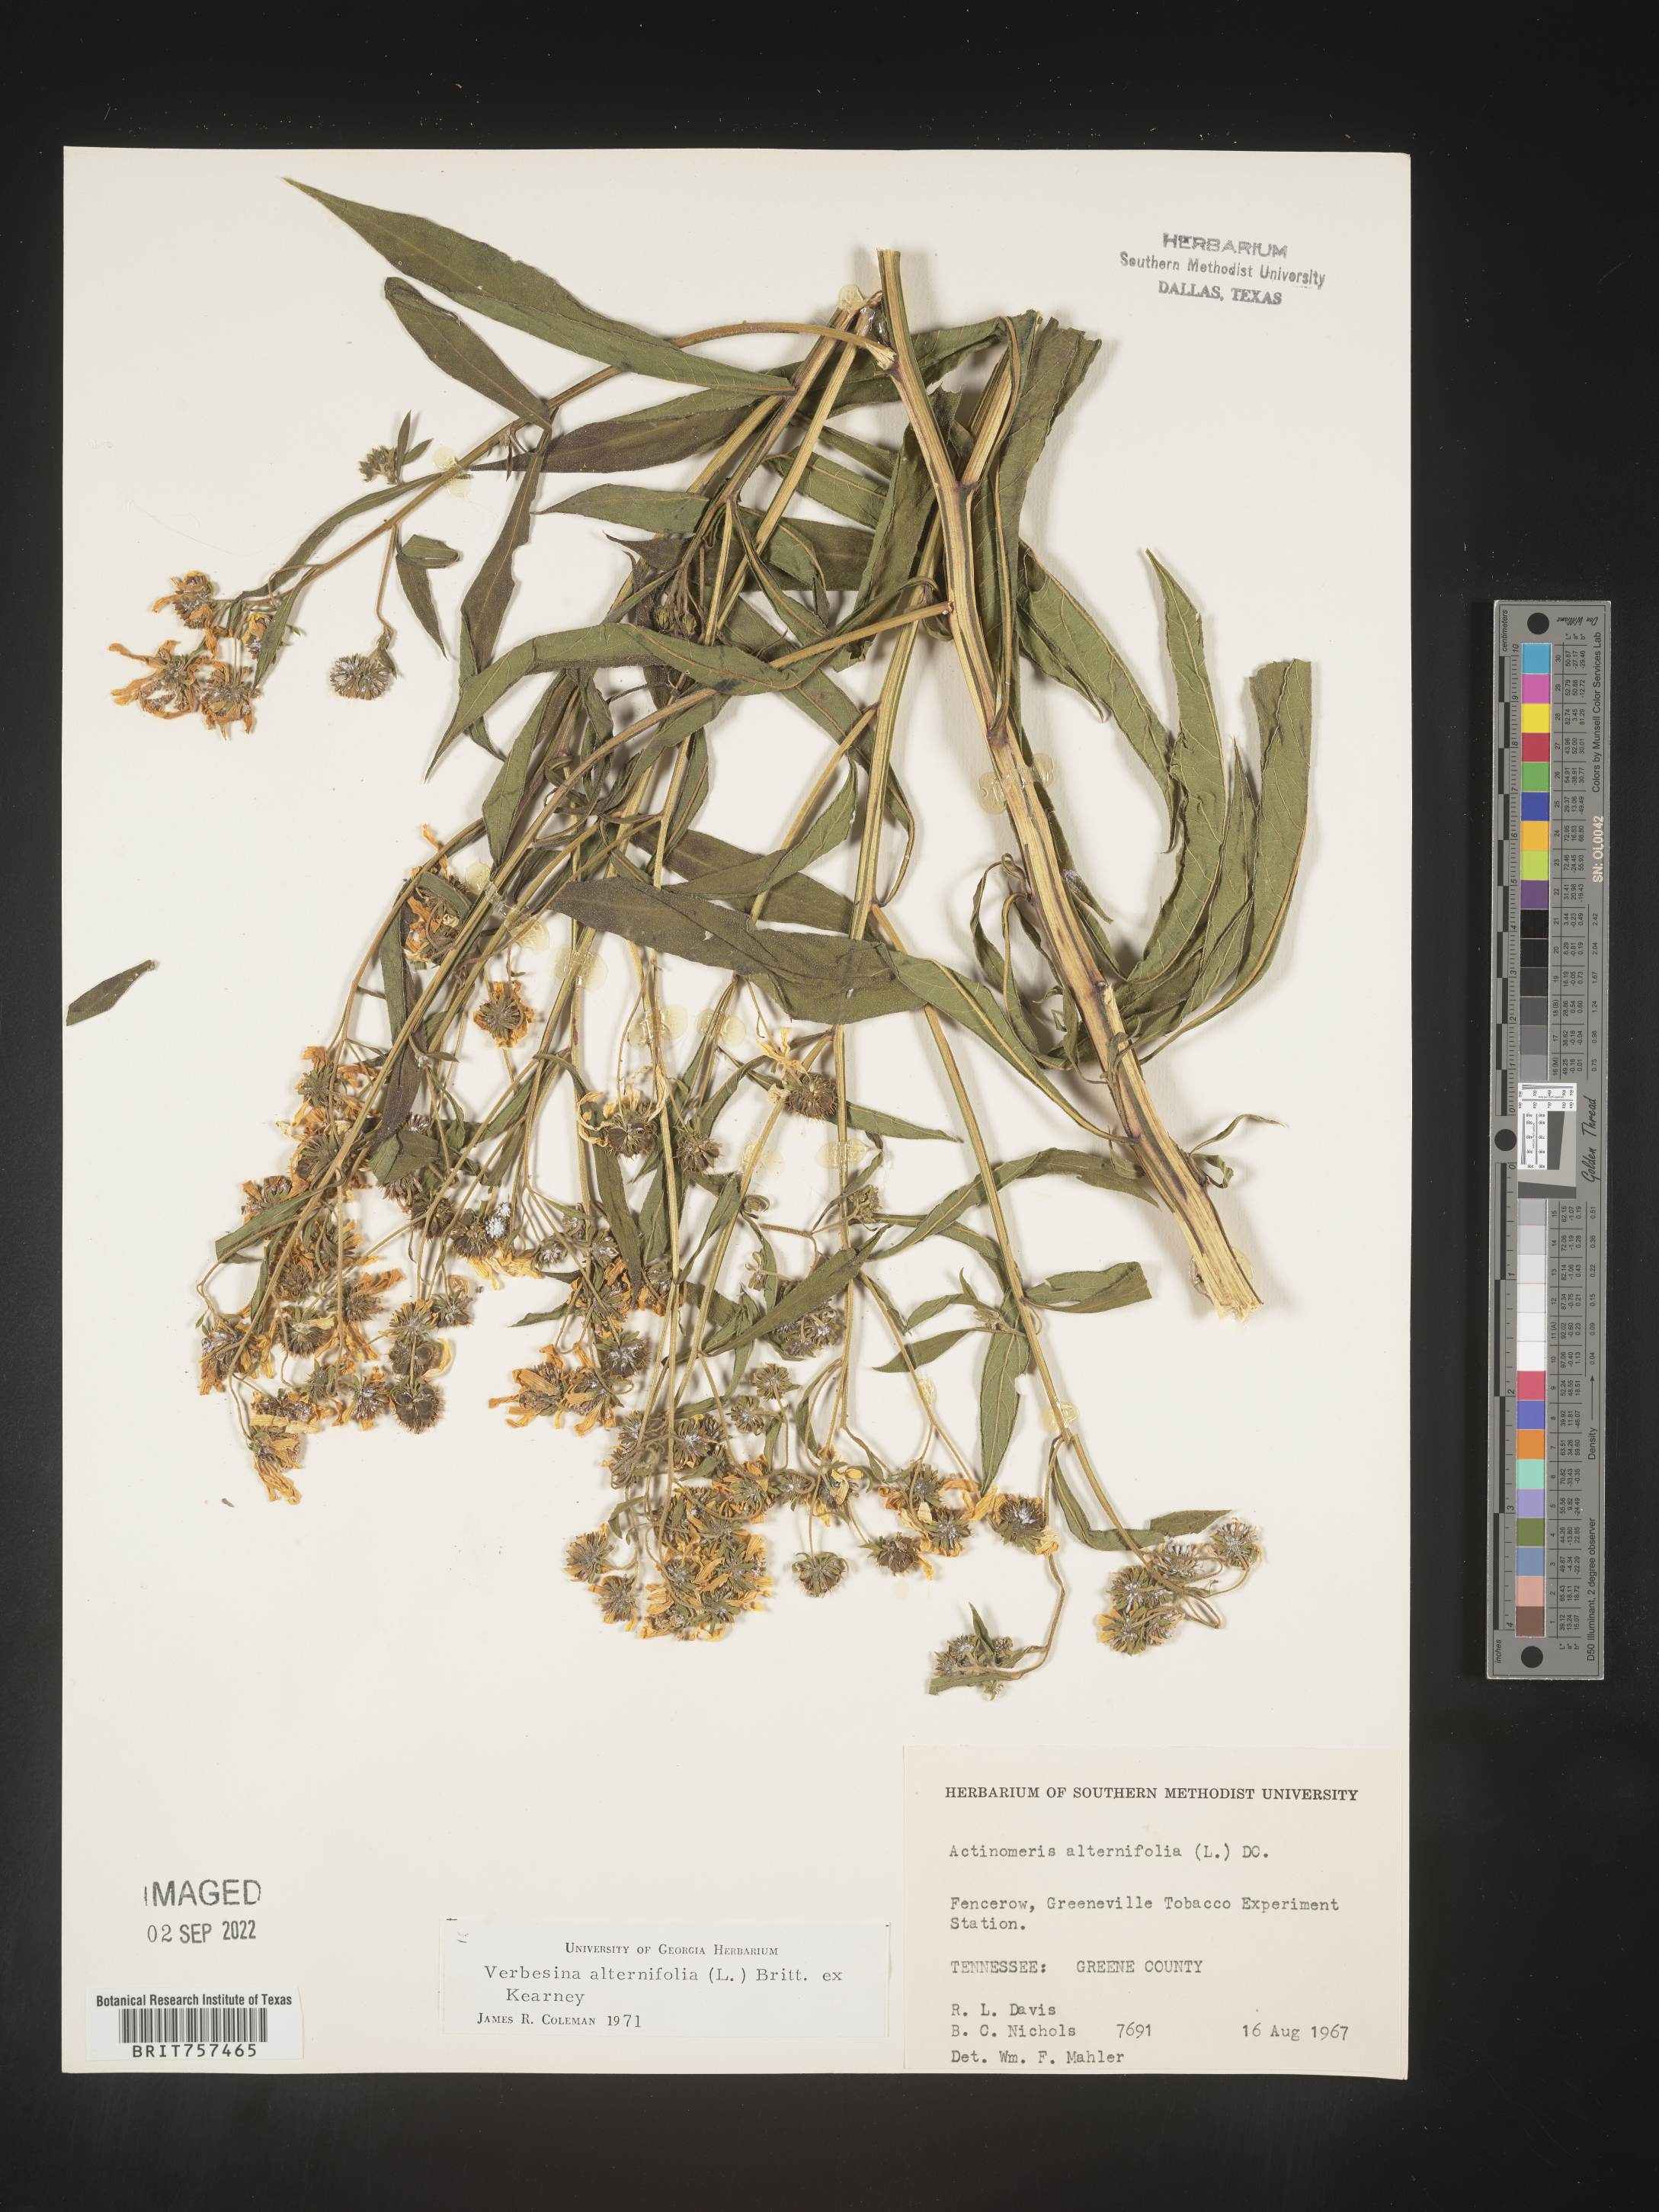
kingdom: Plantae
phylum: Tracheophyta
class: Magnoliopsida
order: Asterales
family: Asteraceae
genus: Verbesina
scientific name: Verbesina alternifolia
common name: Wingstem
